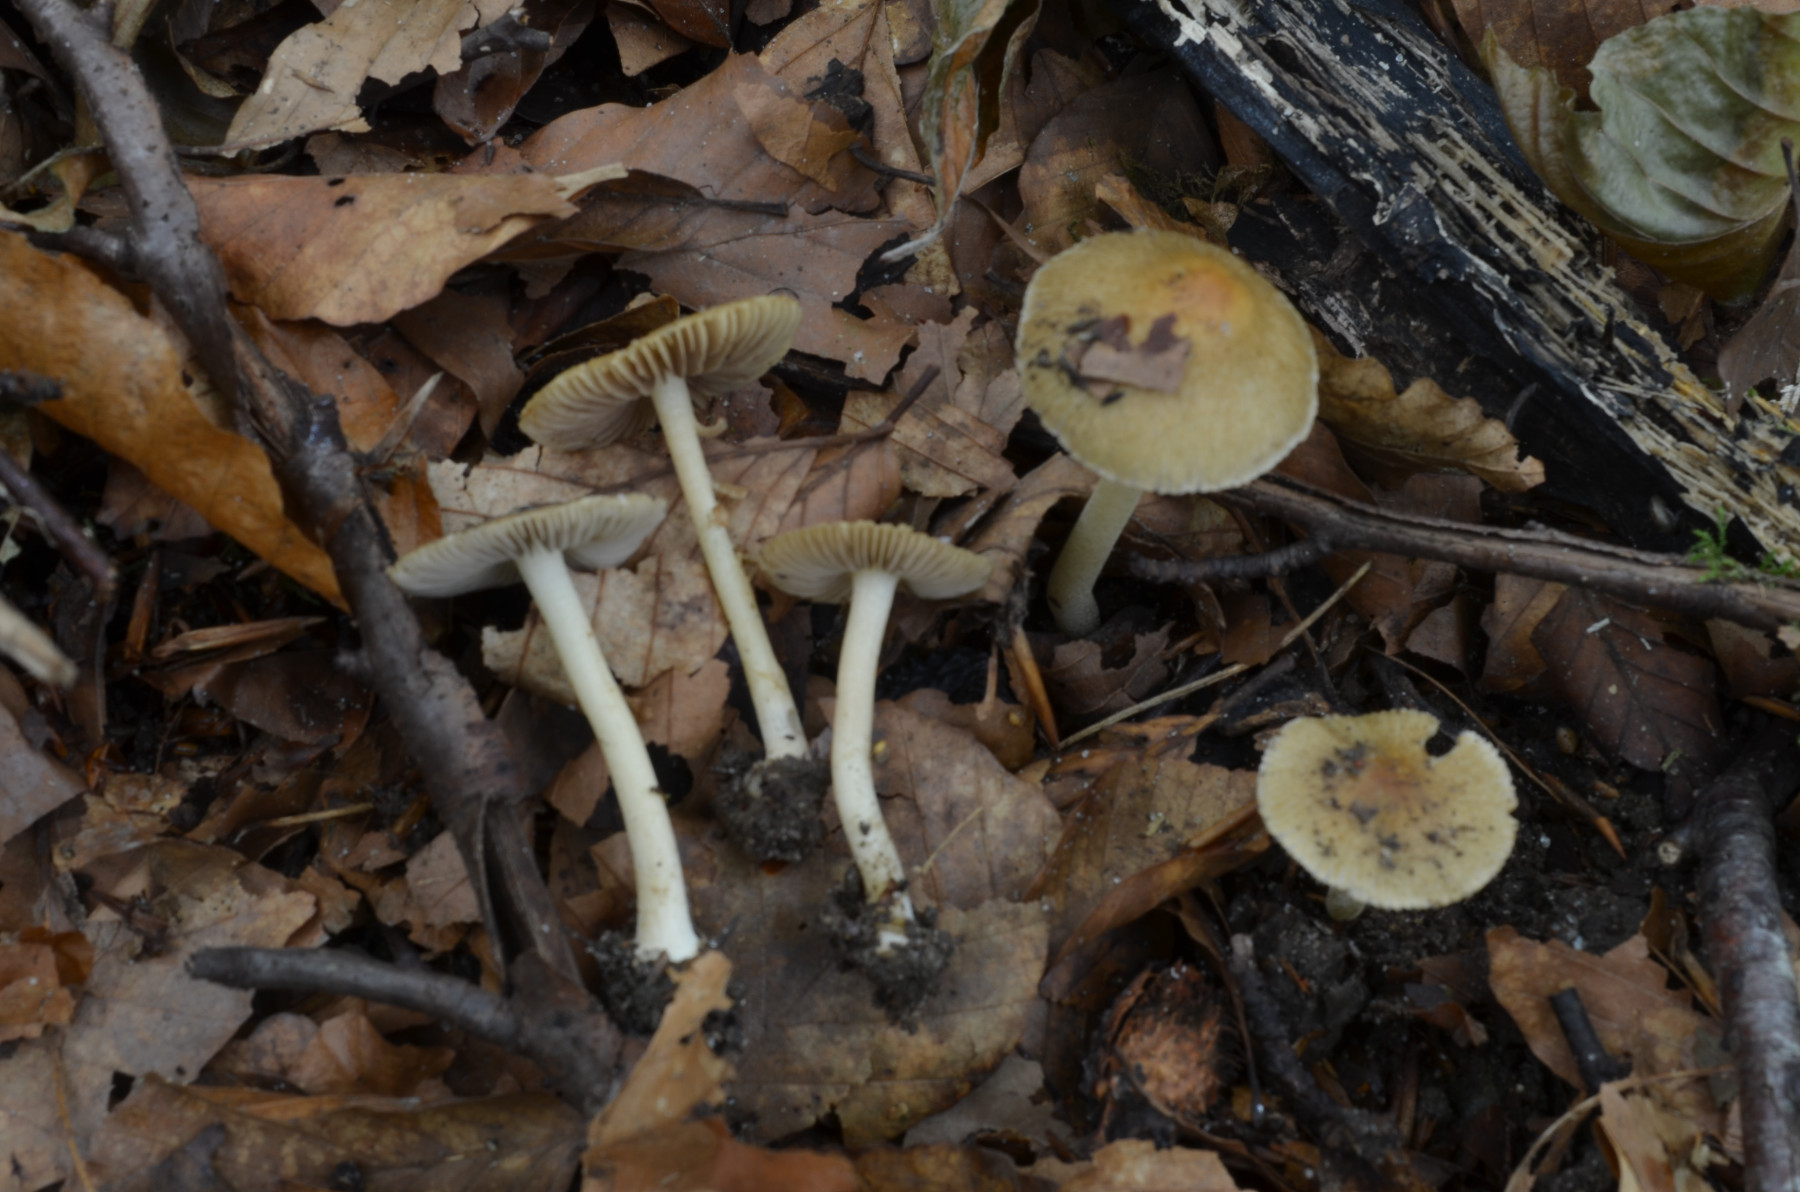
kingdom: Fungi
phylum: Basidiomycota
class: Agaricomycetes
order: Agaricales
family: Inocybaceae
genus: Inocybe
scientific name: Inocybe vaurasii
